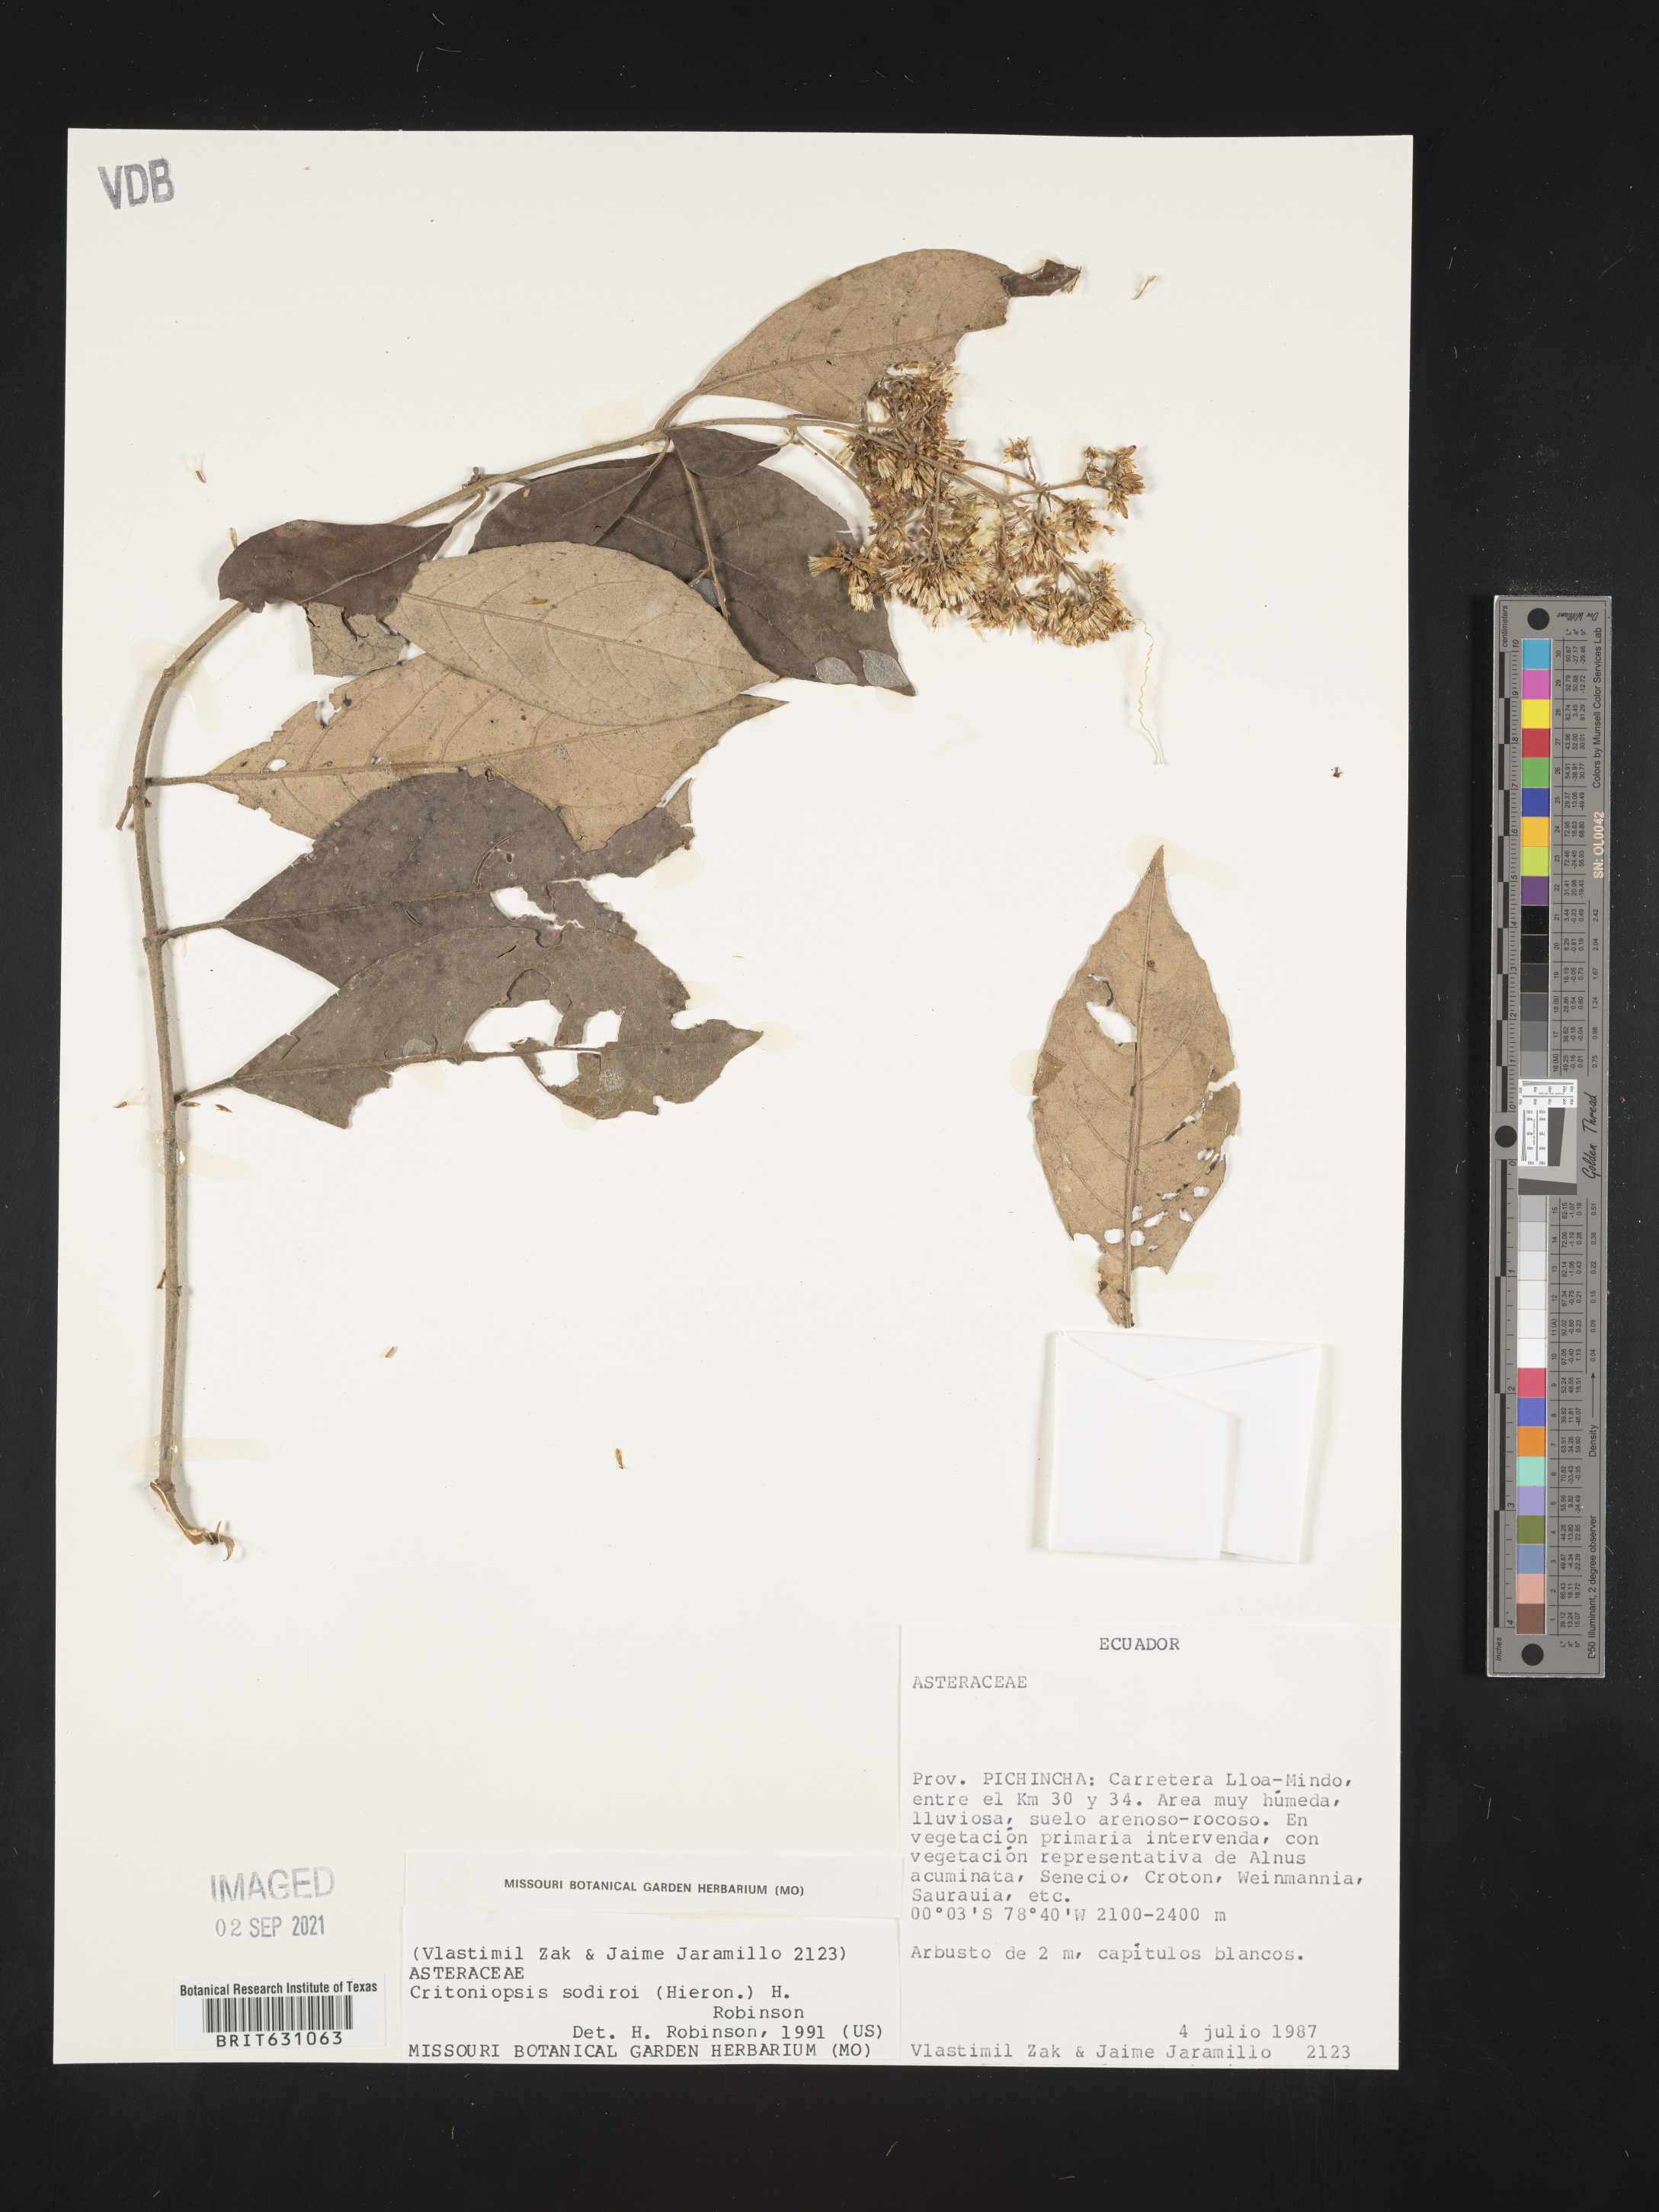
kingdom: Plantae
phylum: Tracheophyta
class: Magnoliopsida
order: Asterales
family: Asteraceae
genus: Critoniopsis
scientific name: Critoniopsis sodiroi
